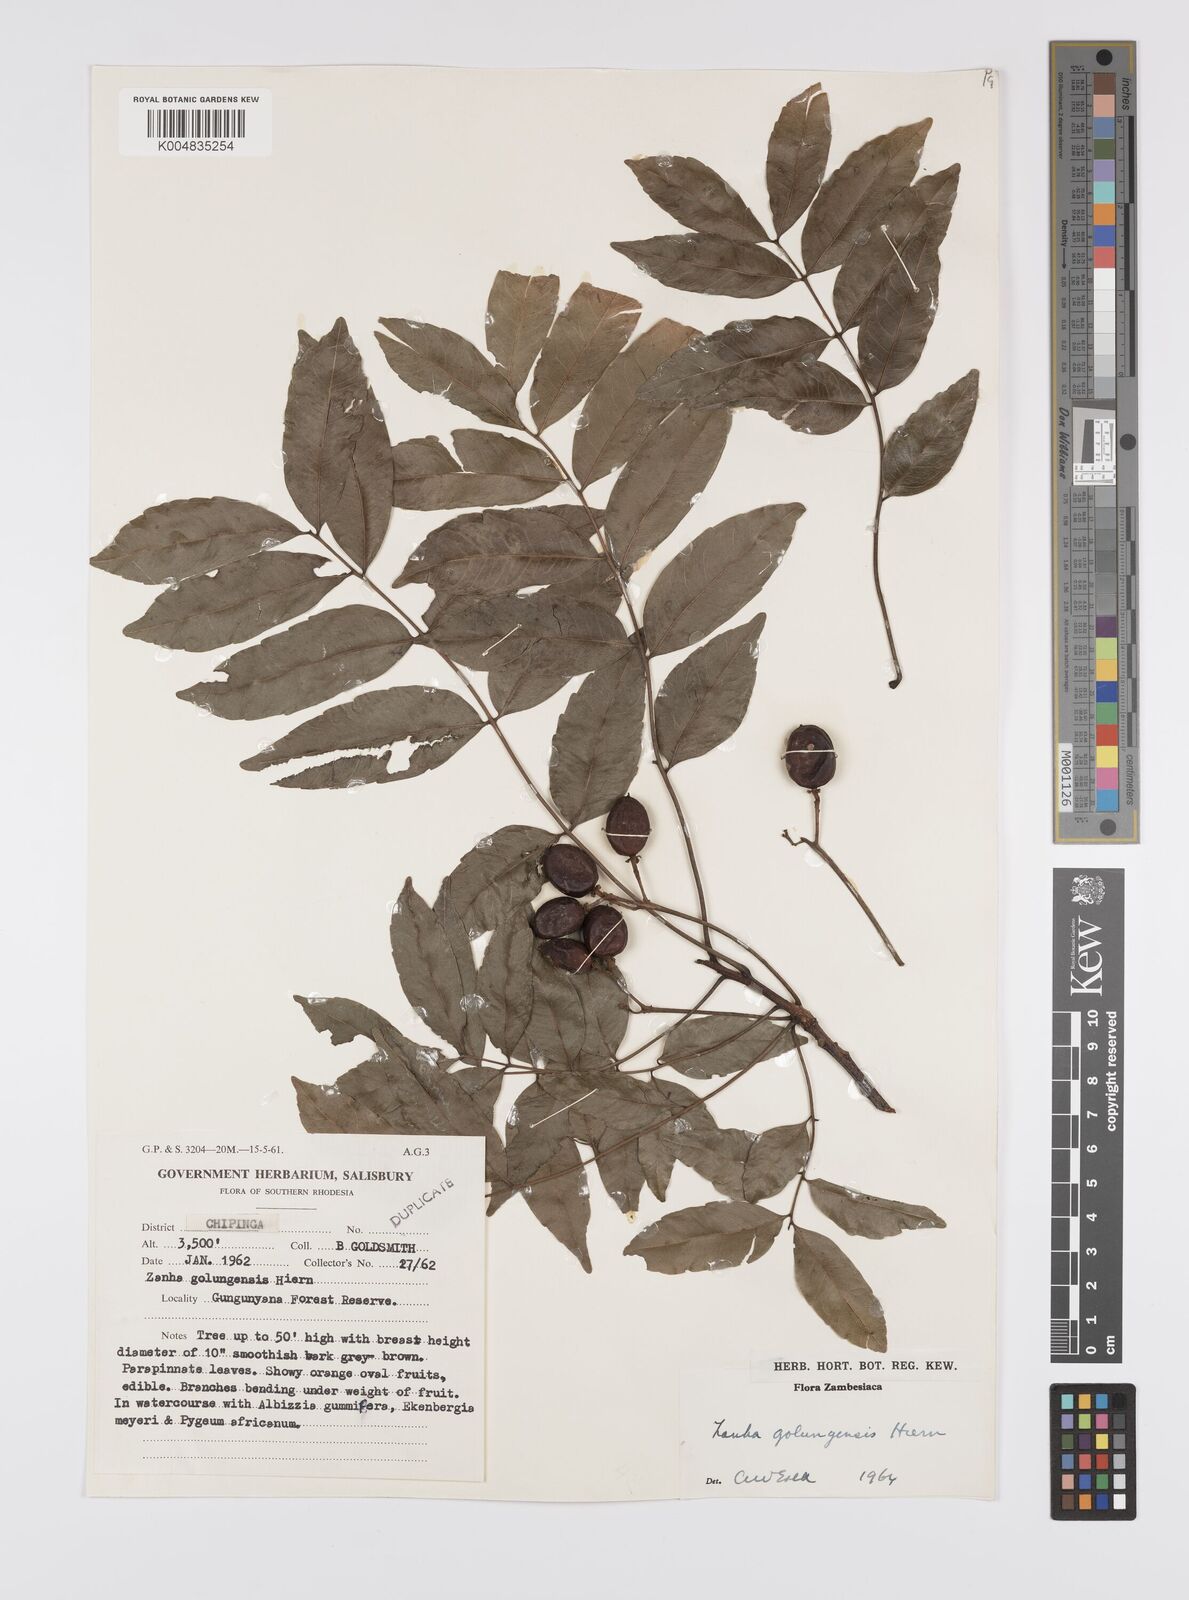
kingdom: Plantae
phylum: Tracheophyta
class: Magnoliopsida
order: Sapindales
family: Sapindaceae
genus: Zanha
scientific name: Zanha golungensis
